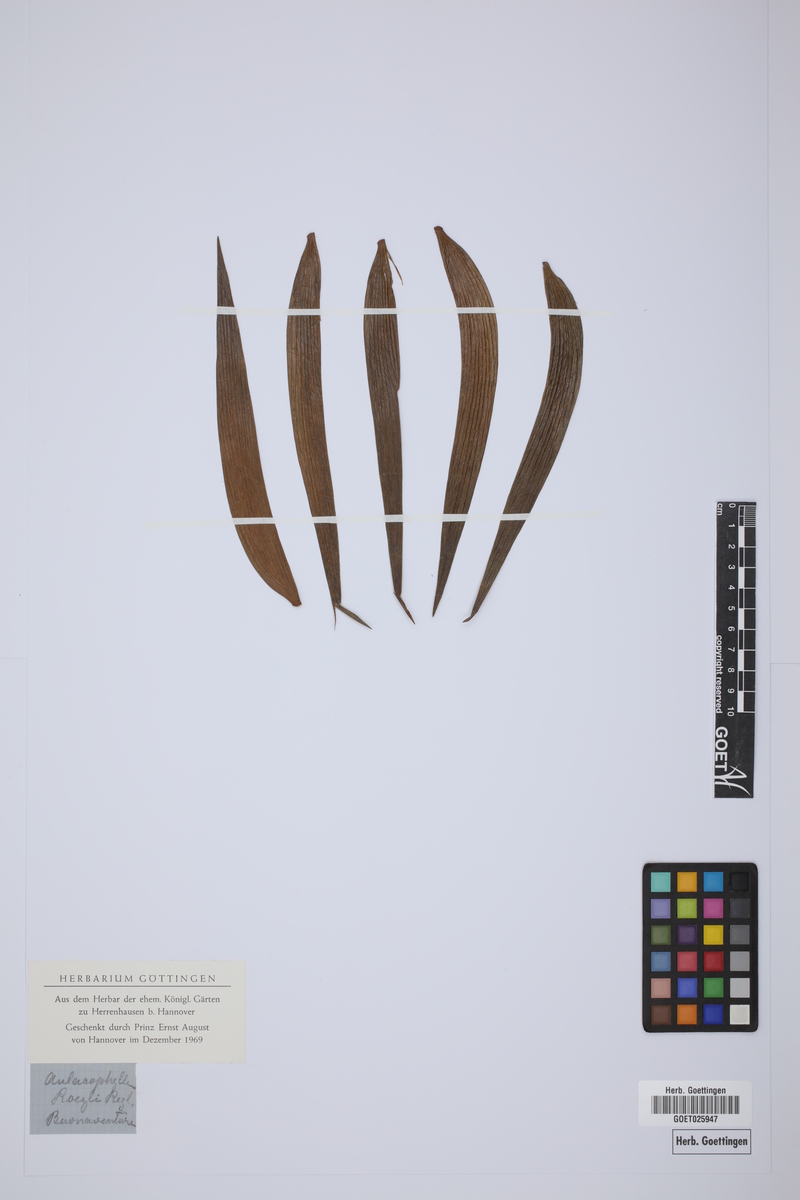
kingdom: Plantae
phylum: Tracheophyta
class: Cycadopsida
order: Cycadales
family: Zamiaceae
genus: Zamia
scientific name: Zamia pseudoparasitica
